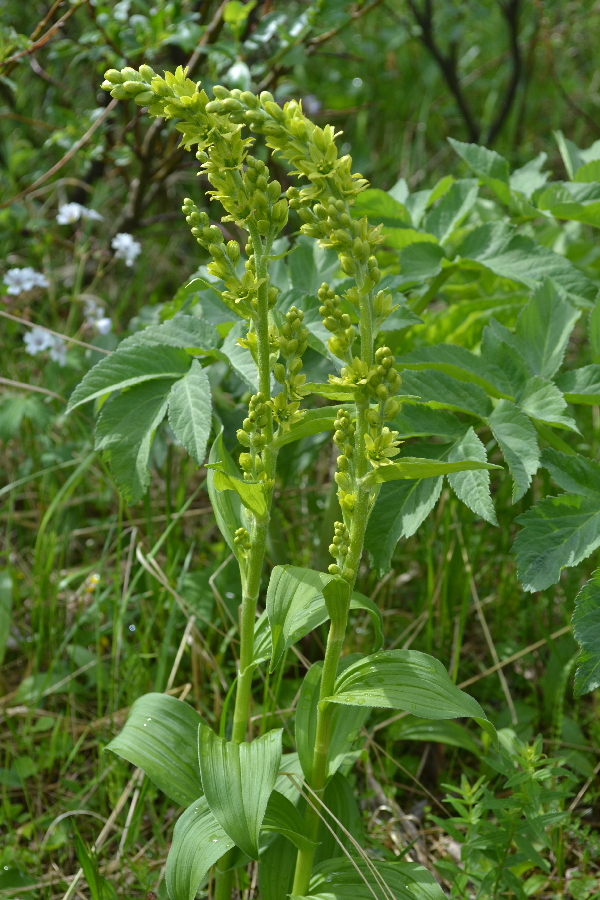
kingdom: Plantae
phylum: Tracheophyta
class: Liliopsida
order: Liliales
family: Melanthiaceae
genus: Veratrum
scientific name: Veratrum lobelianum
